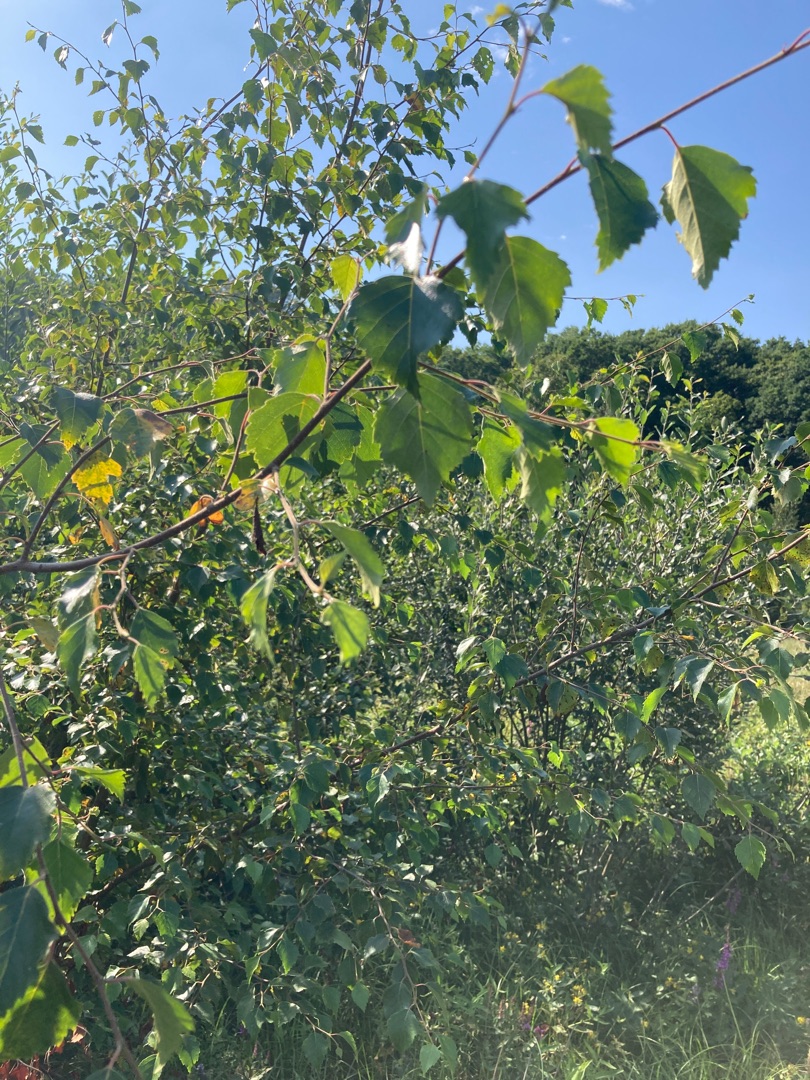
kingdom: Plantae
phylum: Tracheophyta
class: Magnoliopsida
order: Fagales
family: Betulaceae
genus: Betula
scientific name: Betula pendula
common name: Vorte-birk
